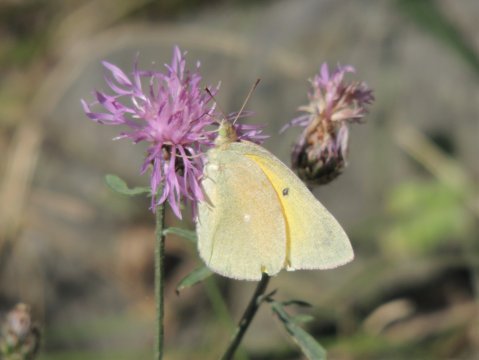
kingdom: Animalia
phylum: Arthropoda
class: Insecta
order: Lepidoptera
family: Pieridae
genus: Colias
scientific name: Colias alexandra
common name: Queen Alexandra's Sulphur
